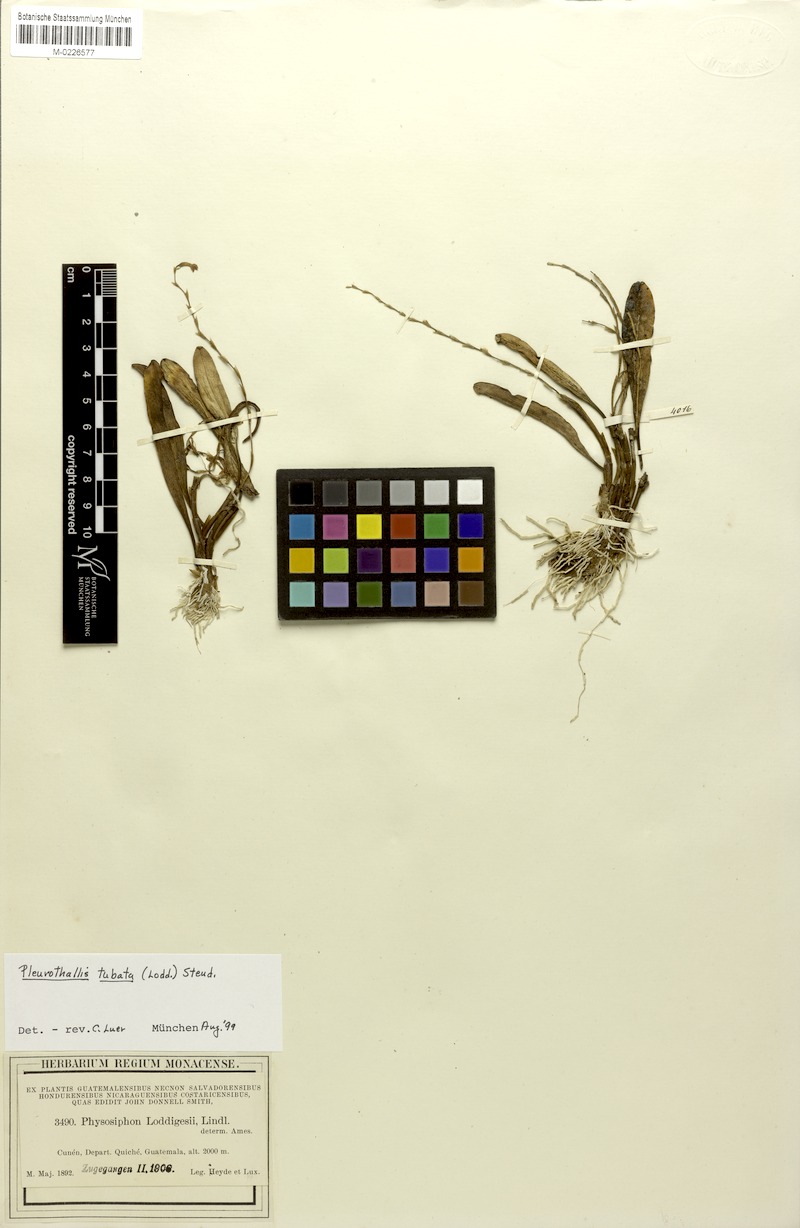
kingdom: Plantae
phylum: Tracheophyta
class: Liliopsida
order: Asparagales
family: Orchidaceae
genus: Stelis
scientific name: Stelis emarginata
